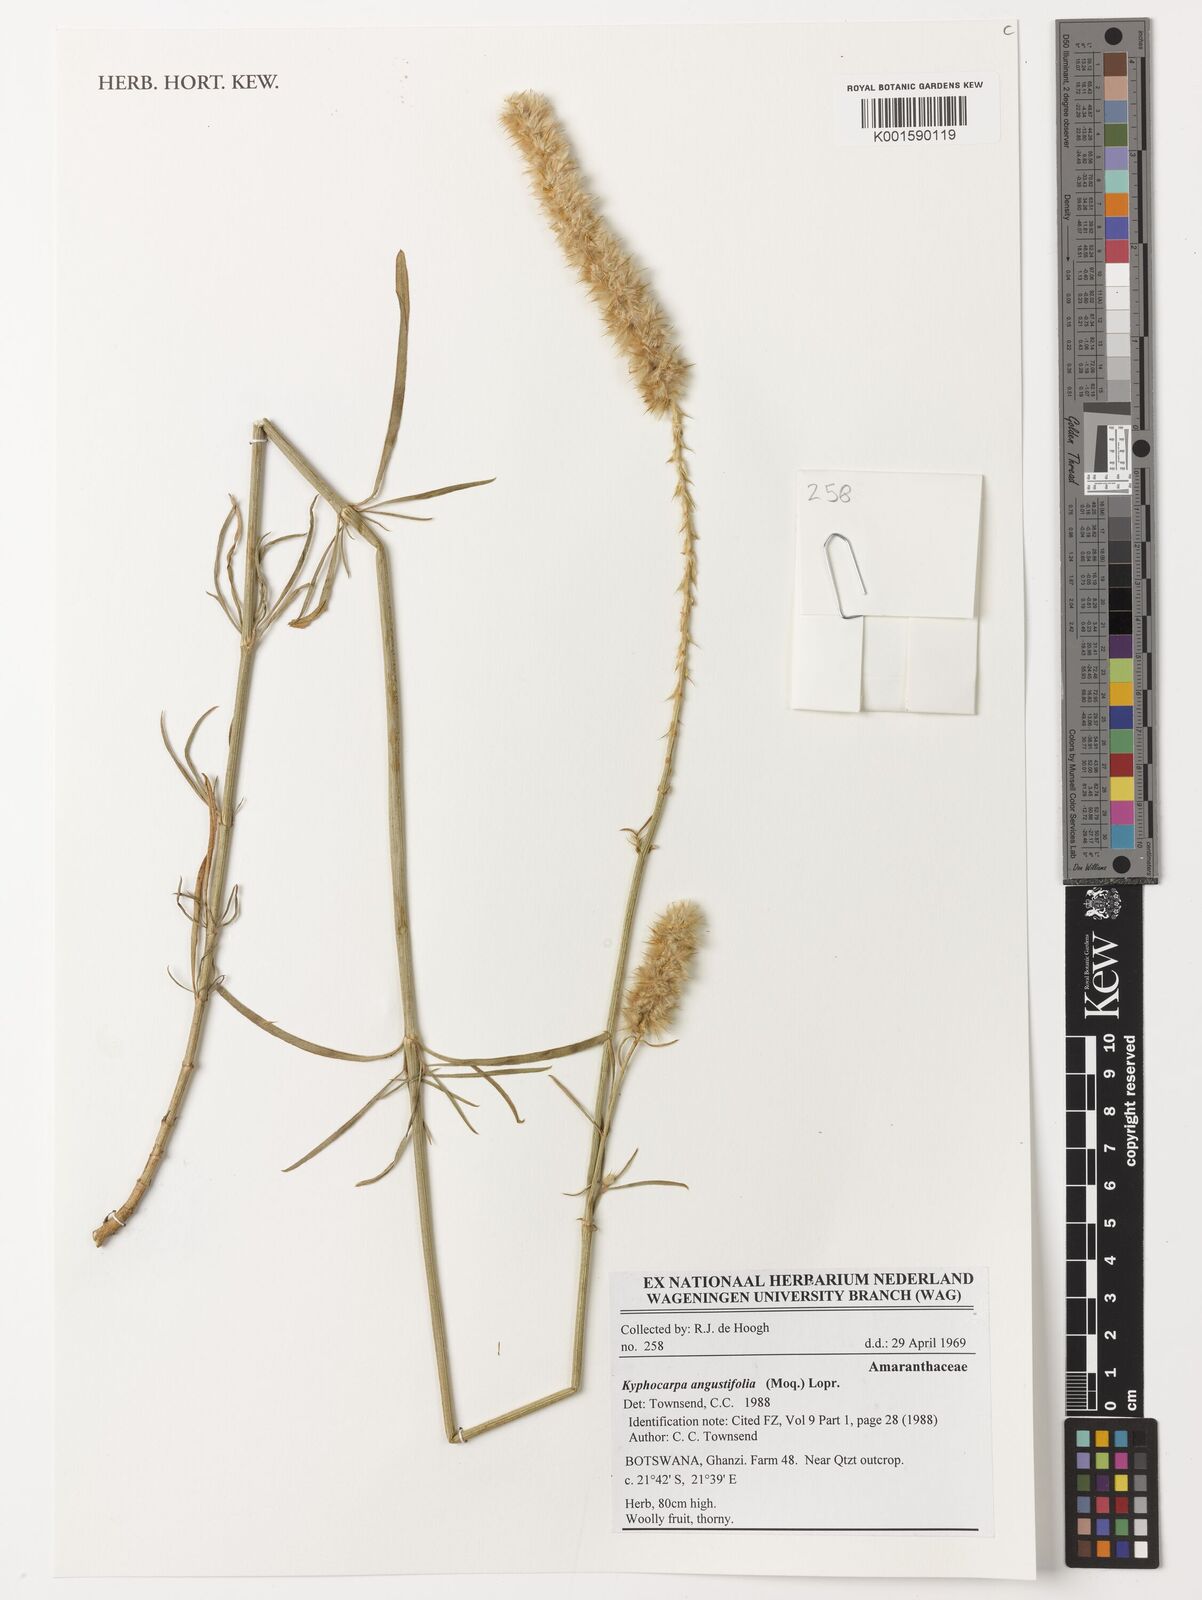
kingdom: Plantae
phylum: Tracheophyta
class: Magnoliopsida
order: Caryophyllales
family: Amaranthaceae
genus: Kyphocarpa
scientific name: Kyphocarpa
